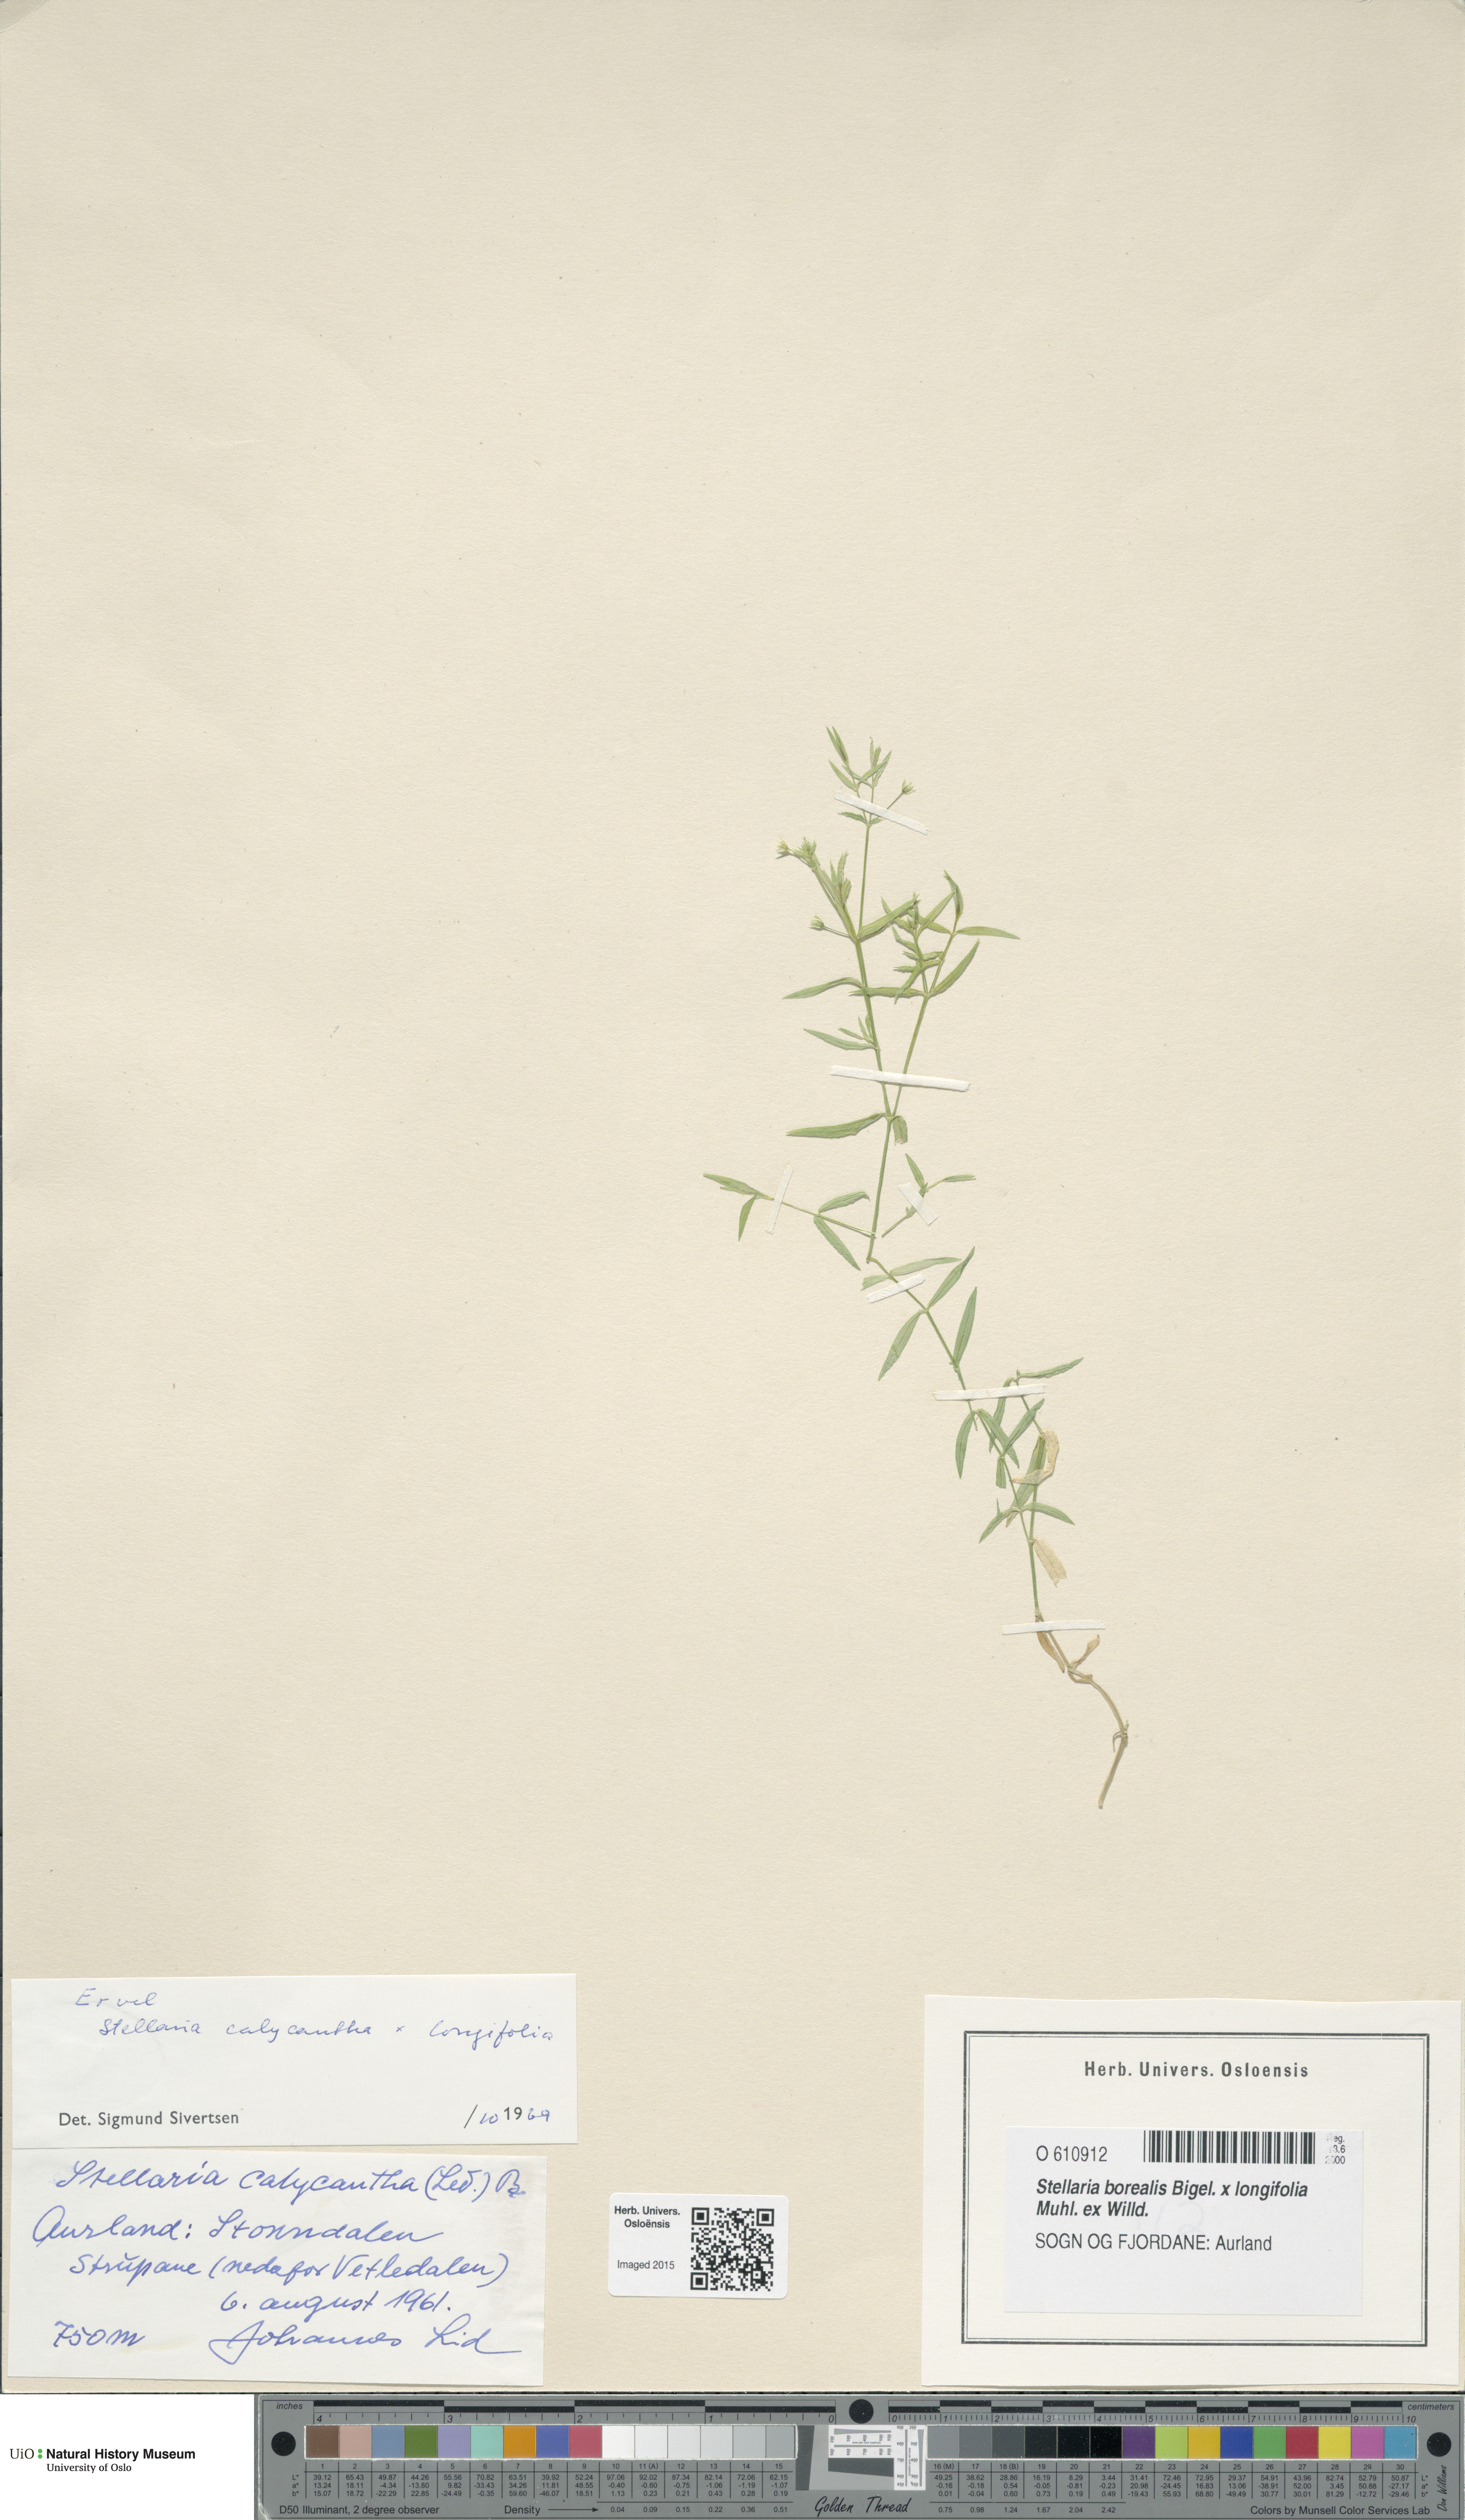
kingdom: Plantae
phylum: Tracheophyta
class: Magnoliopsida
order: Caryophyllales
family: Caryophyllaceae
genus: Stellaria
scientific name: Stellaria
